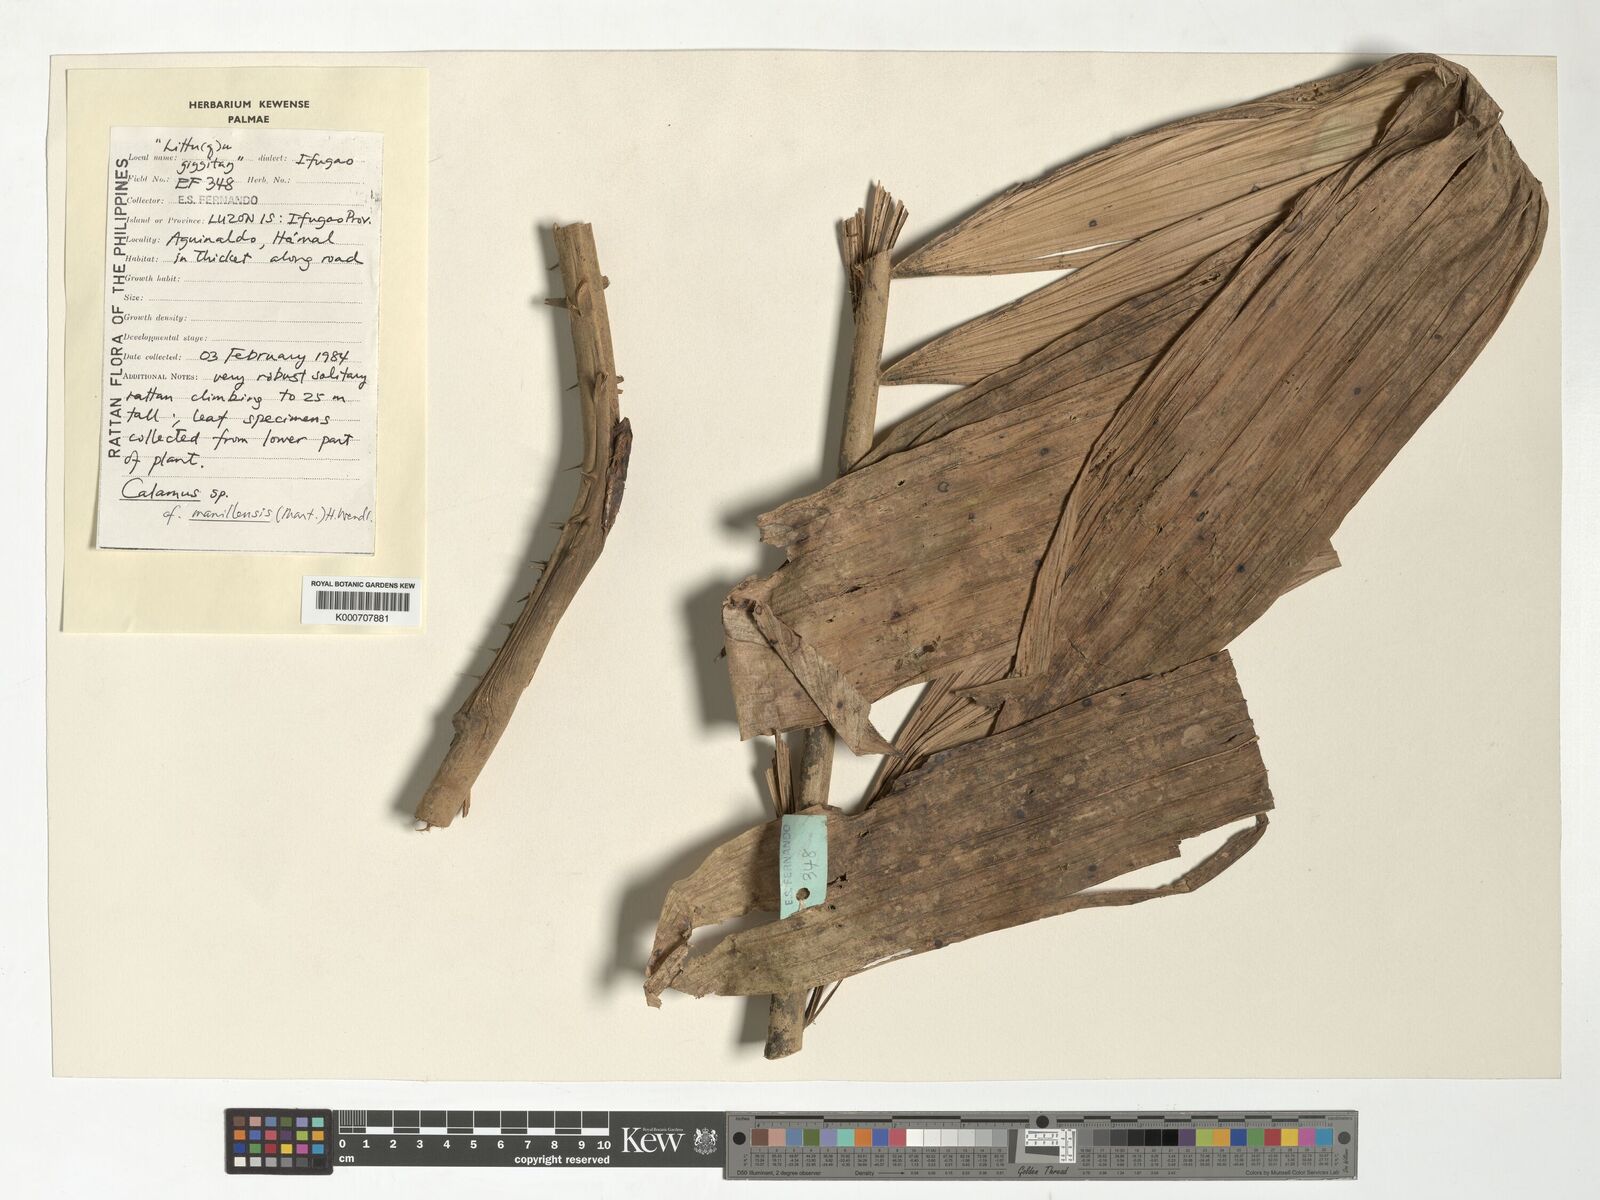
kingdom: Plantae
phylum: Tracheophyta
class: Liliopsida
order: Arecales
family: Arecaceae
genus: Calamus
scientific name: Calamus manillensis
